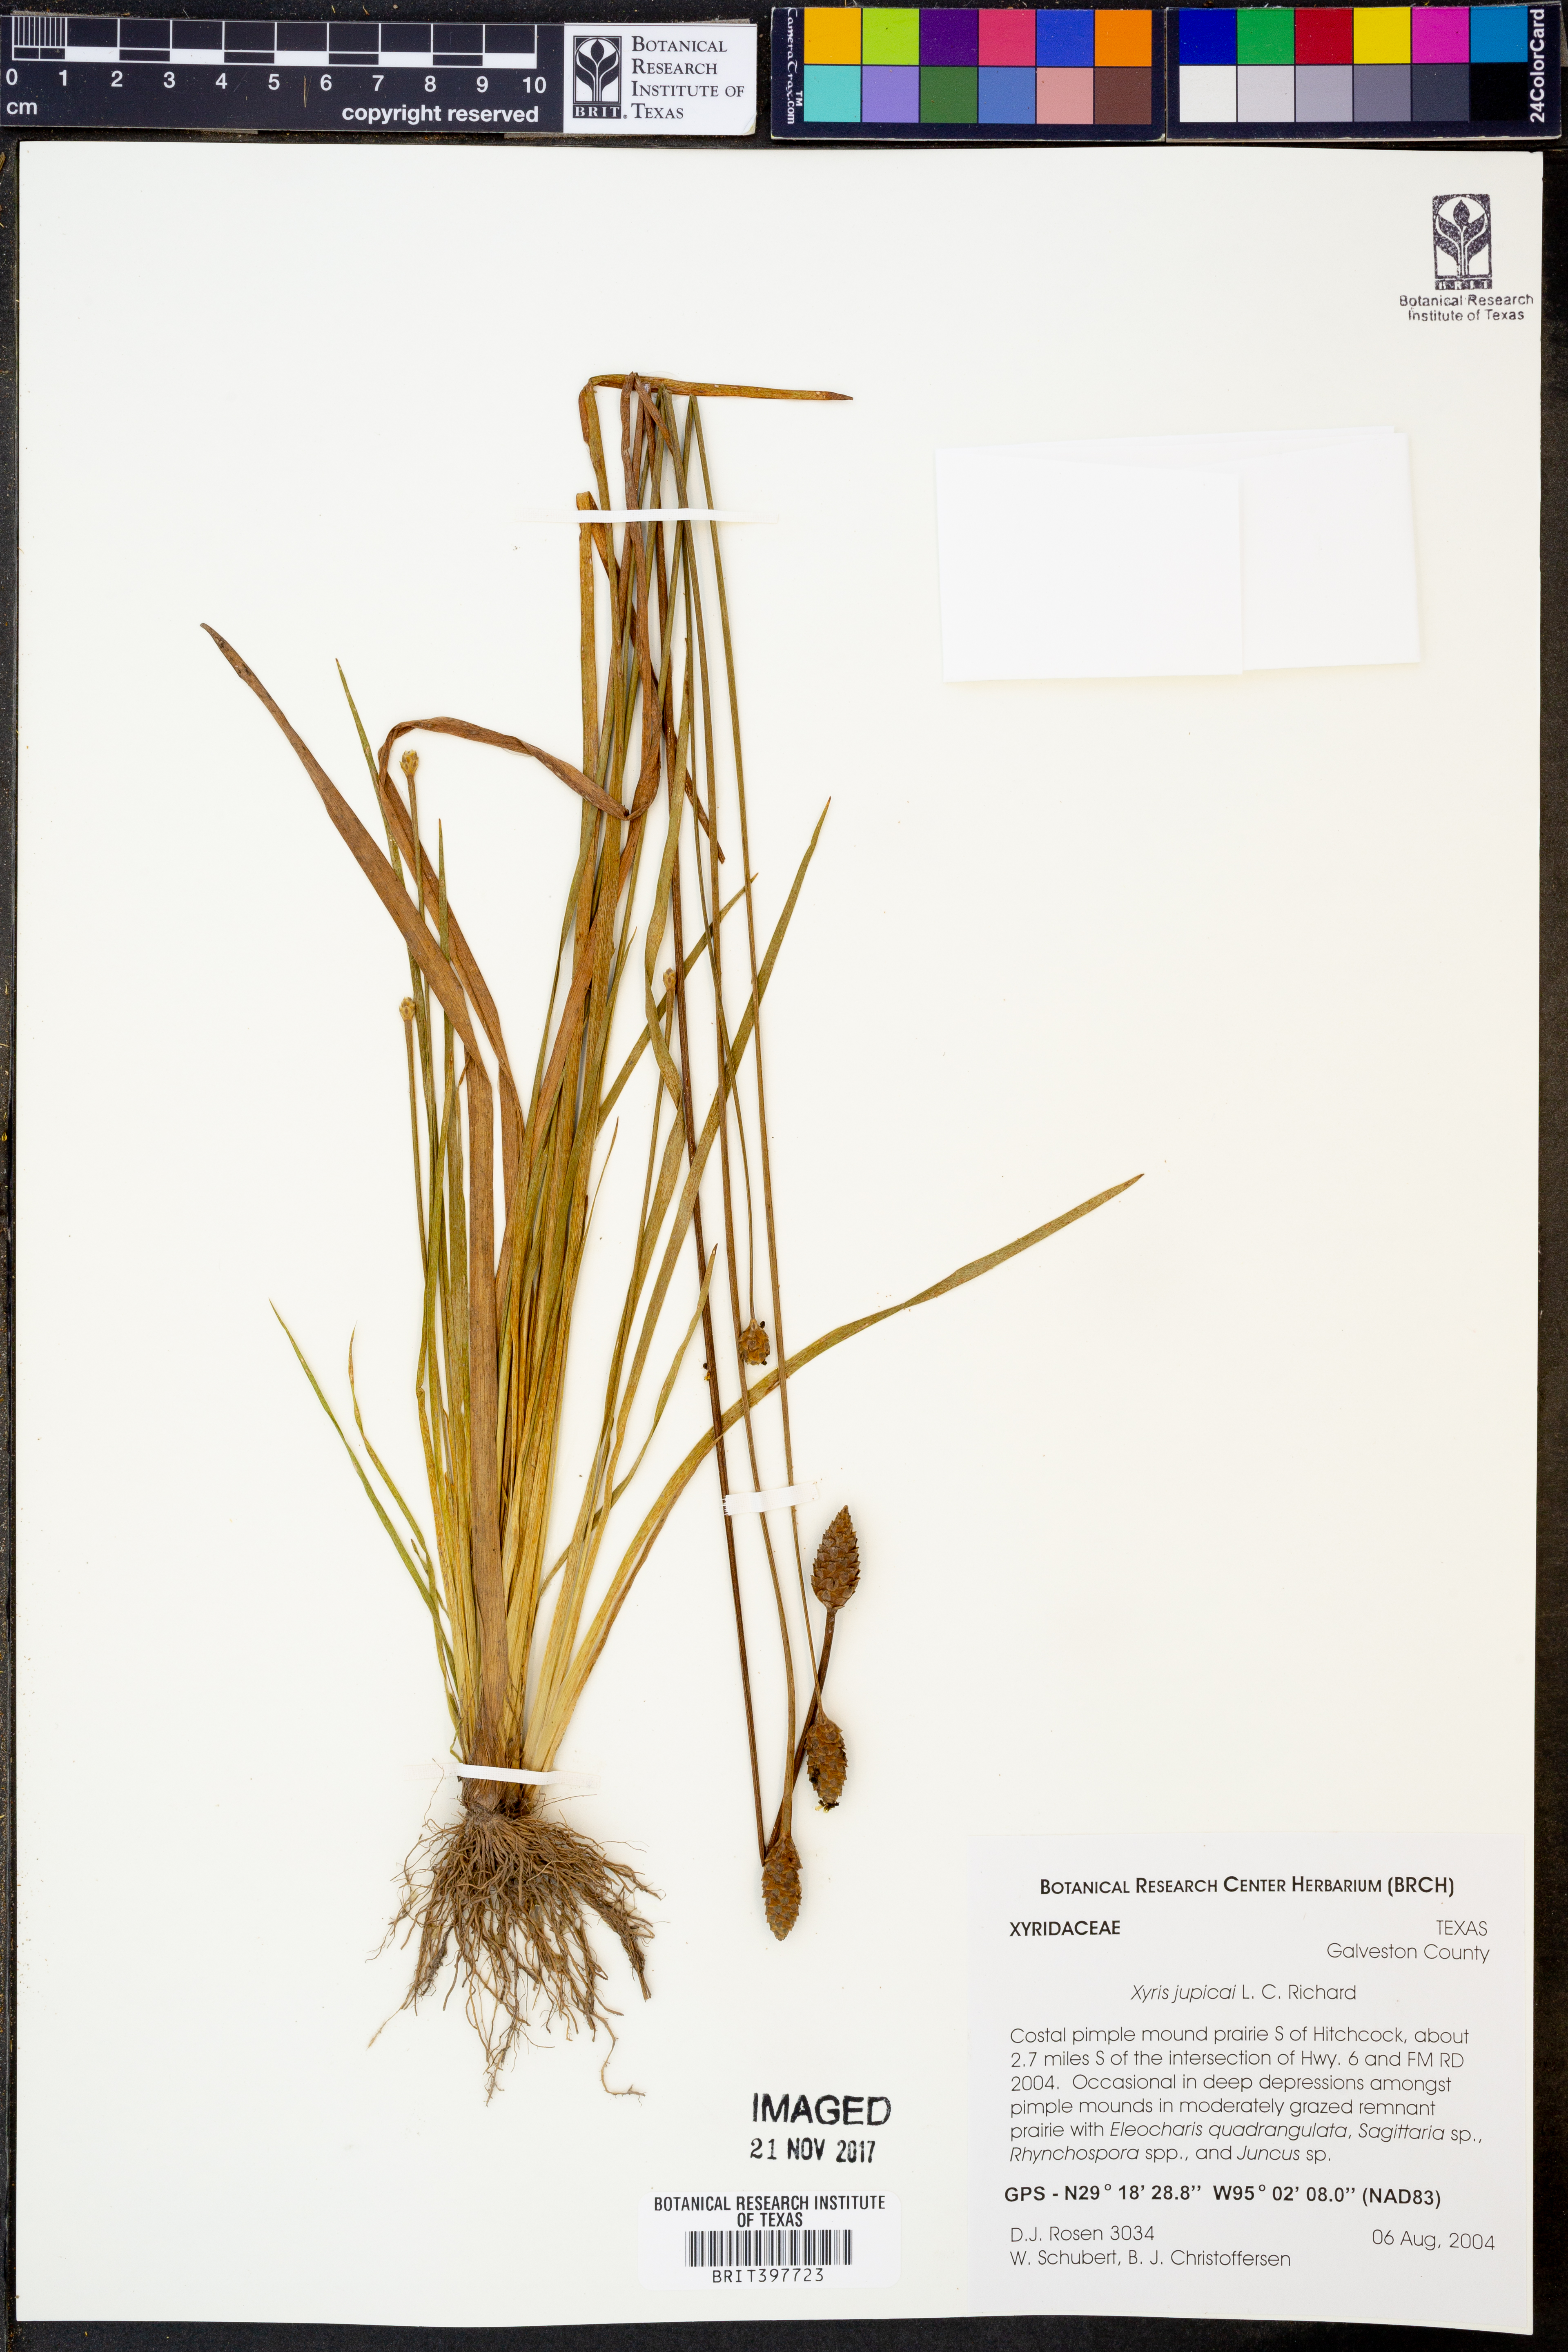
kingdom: Plantae
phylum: Tracheophyta
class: Liliopsida
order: Poales
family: Xyridaceae
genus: Xyris
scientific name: Xyris jupicai
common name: Richard's yelloweyed grass
